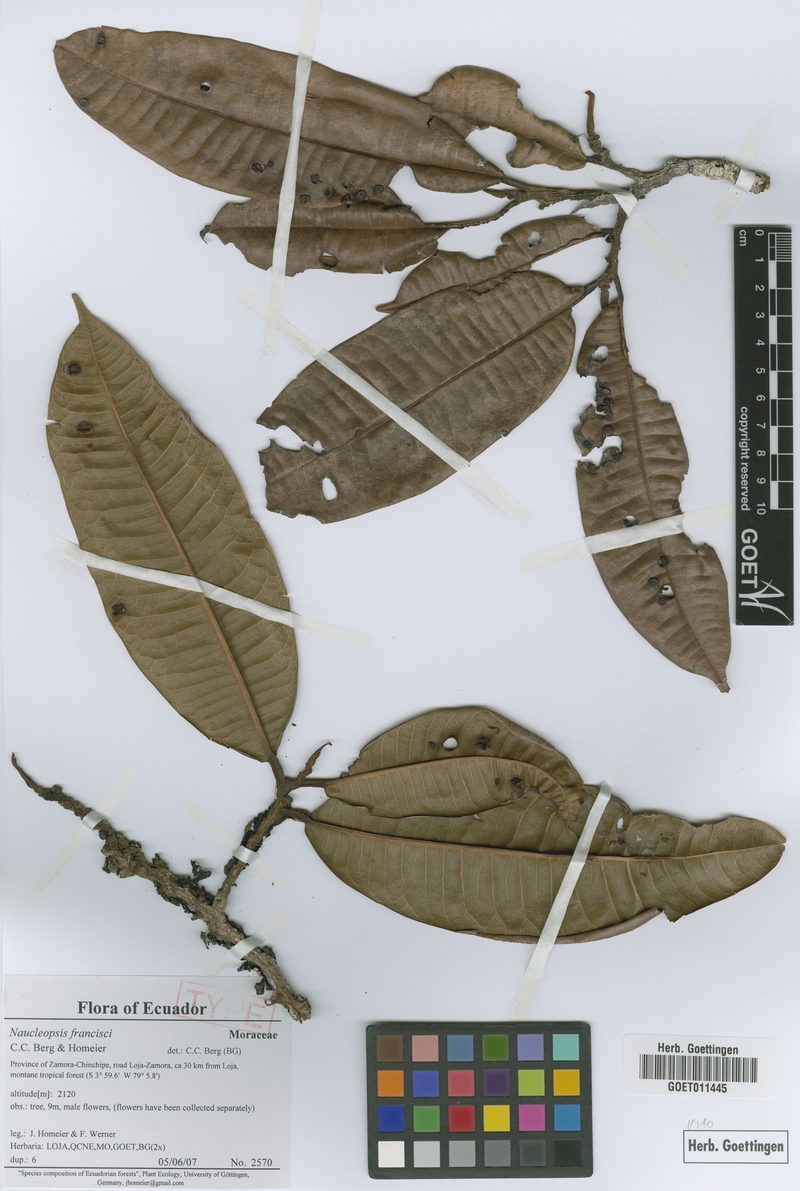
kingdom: Plantae
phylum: Tracheophyta
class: Magnoliopsida
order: Rosales
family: Moraceae
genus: Naucleopsis
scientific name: Naucleopsis francisci
